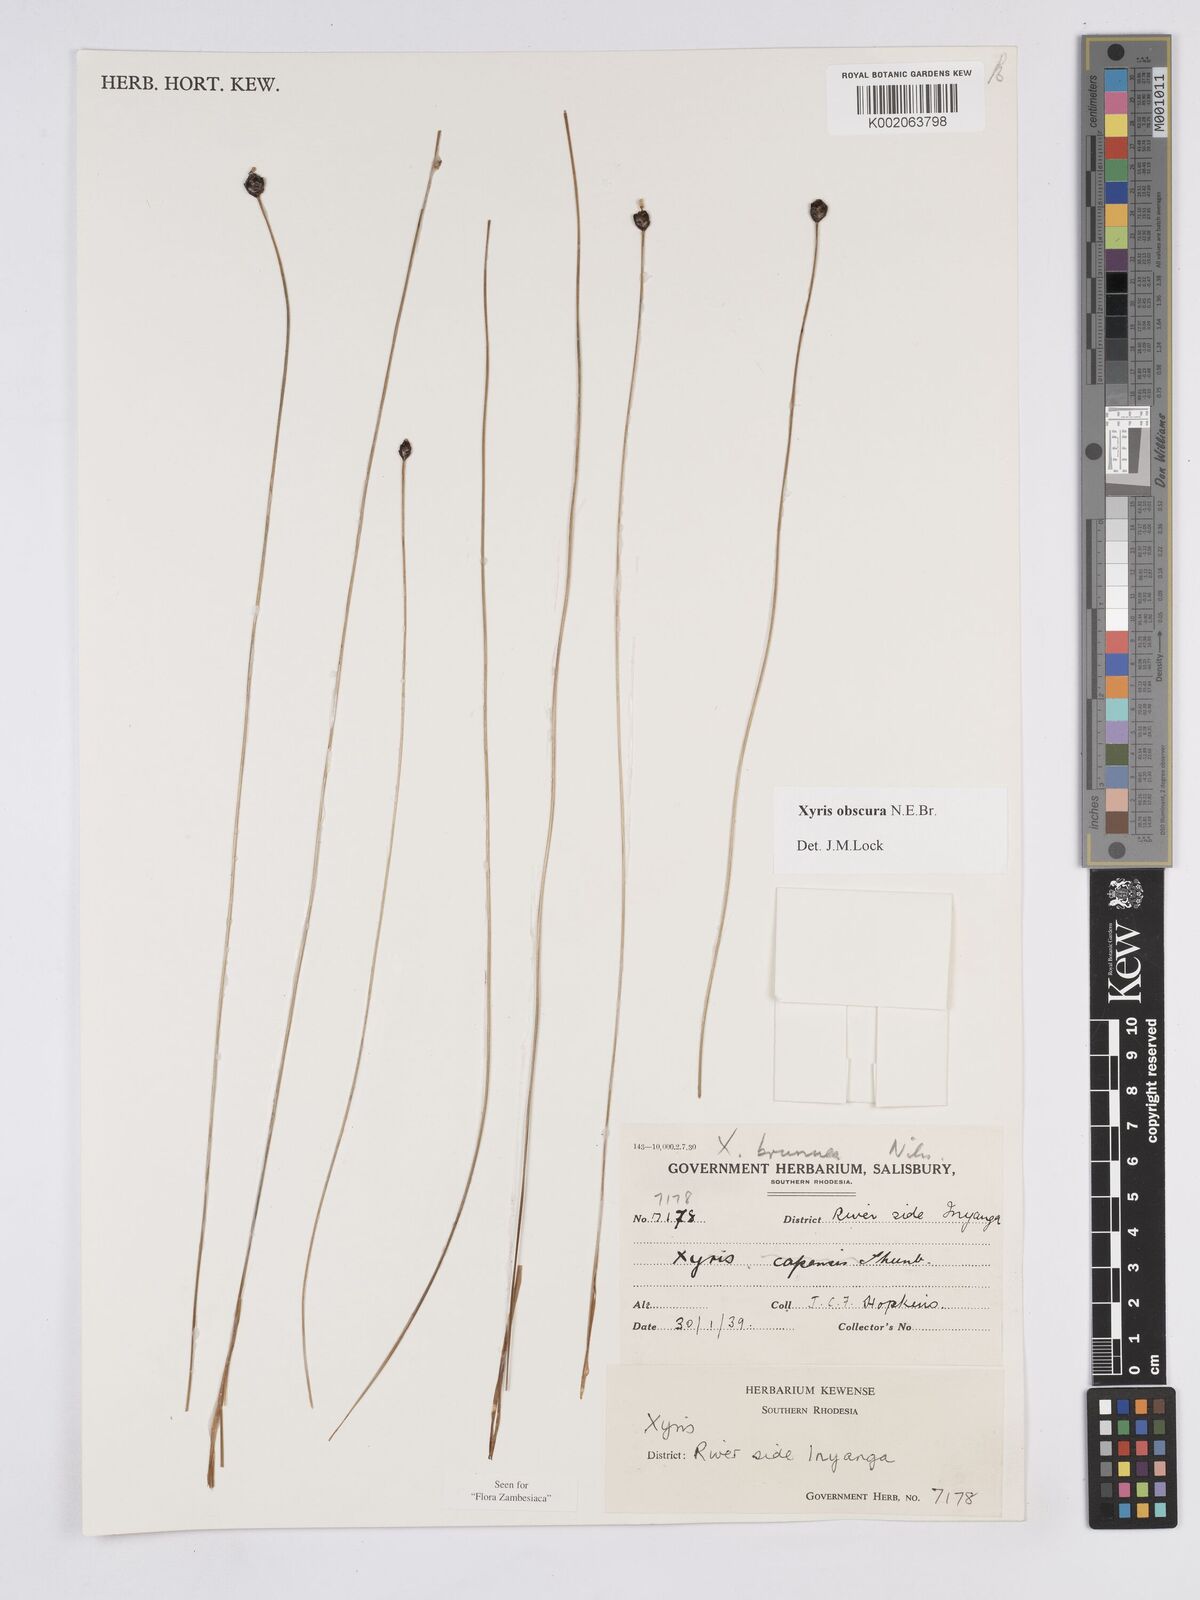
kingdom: Plantae
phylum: Tracheophyta
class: Liliopsida
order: Poales
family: Xyridaceae
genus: Xyris
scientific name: Xyris obscura
